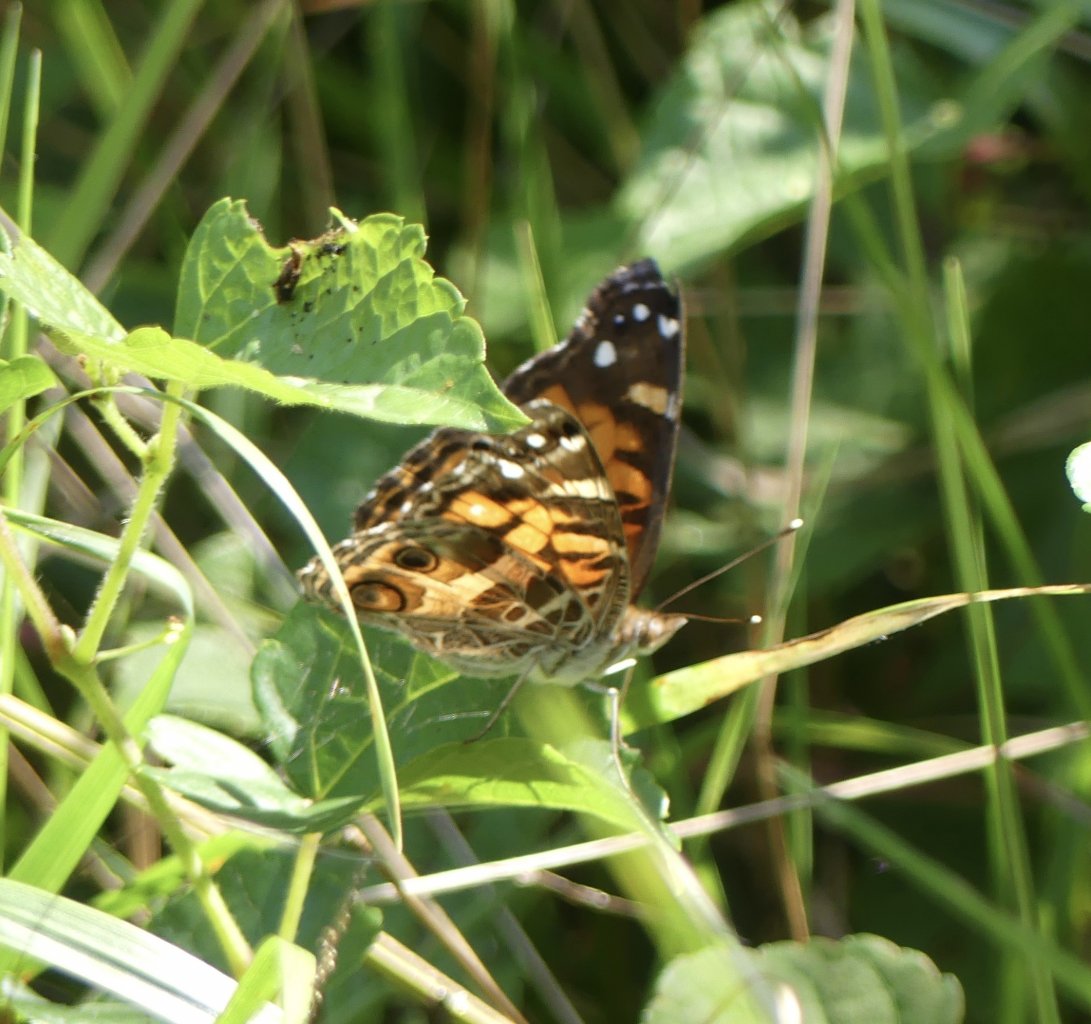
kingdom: Animalia
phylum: Arthropoda
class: Insecta
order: Lepidoptera
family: Nymphalidae
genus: Vanessa
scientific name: Vanessa virginiensis
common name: American Lady
